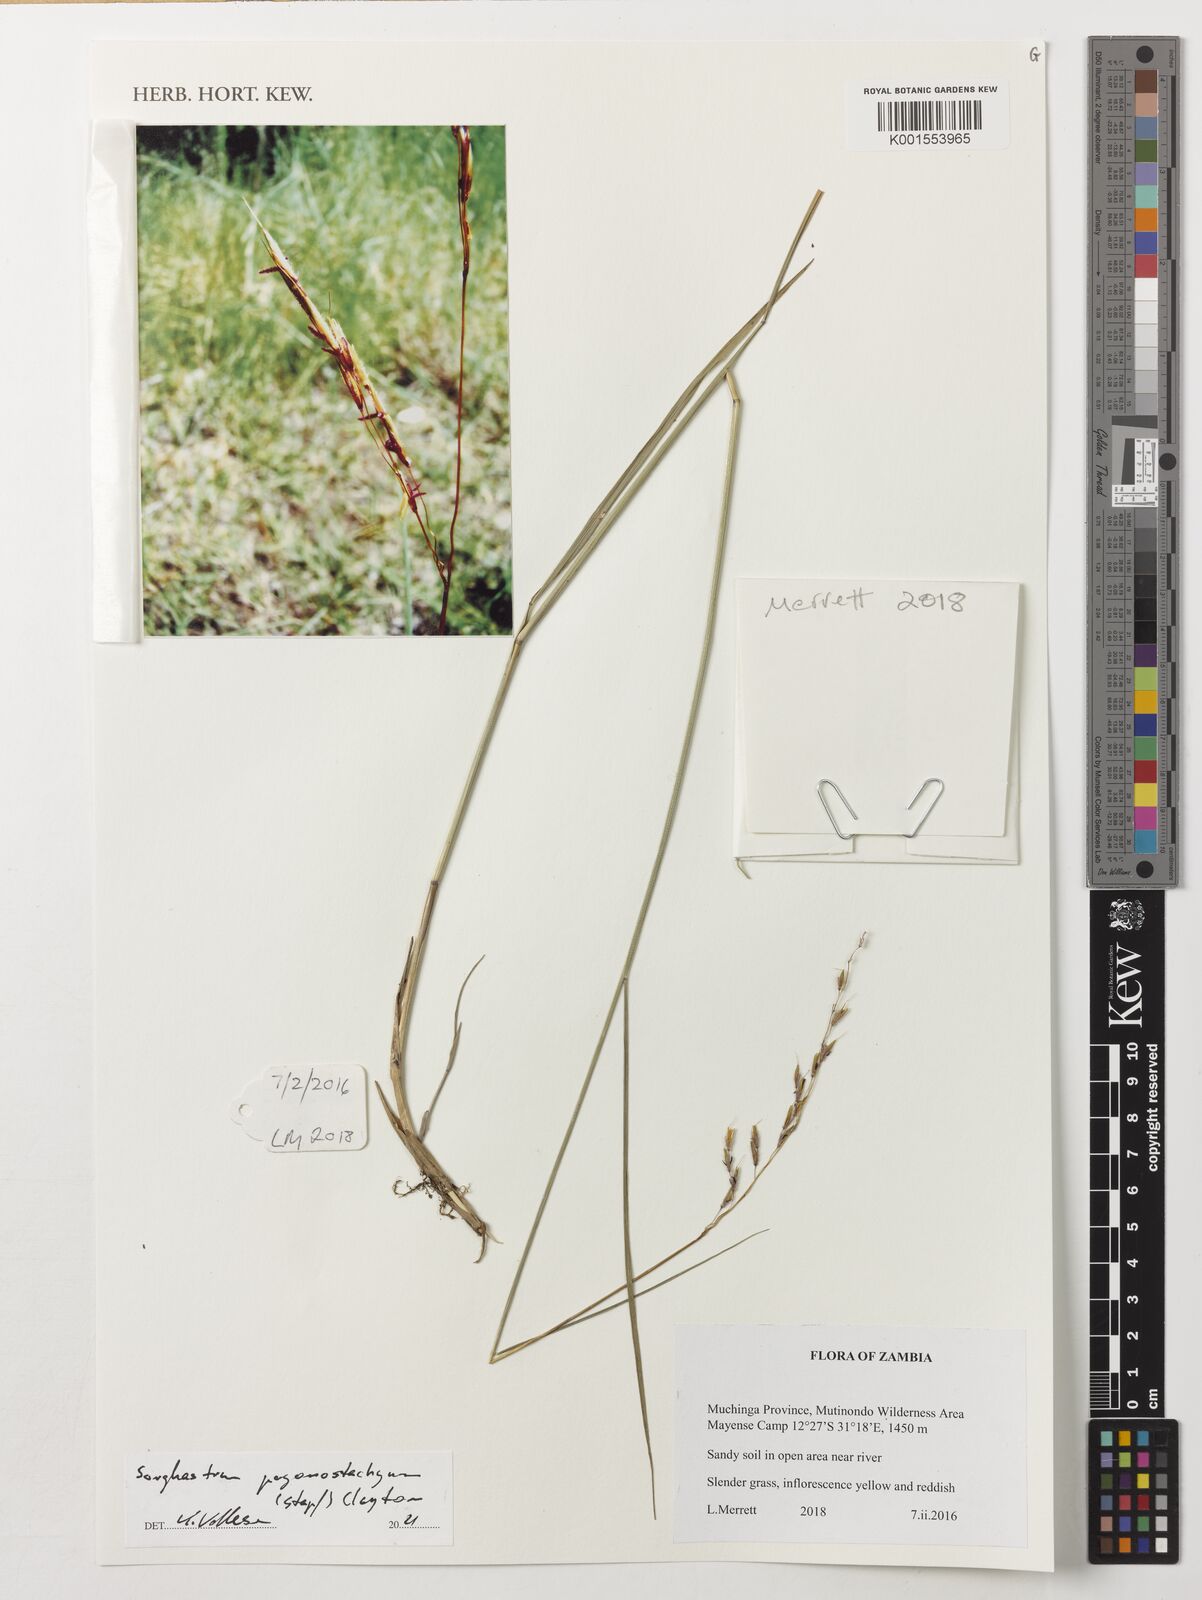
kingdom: Plantae
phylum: Tracheophyta
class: Liliopsida
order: Poales
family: Poaceae
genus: Sorghastrum
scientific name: Sorghastrum pogonostachyum
